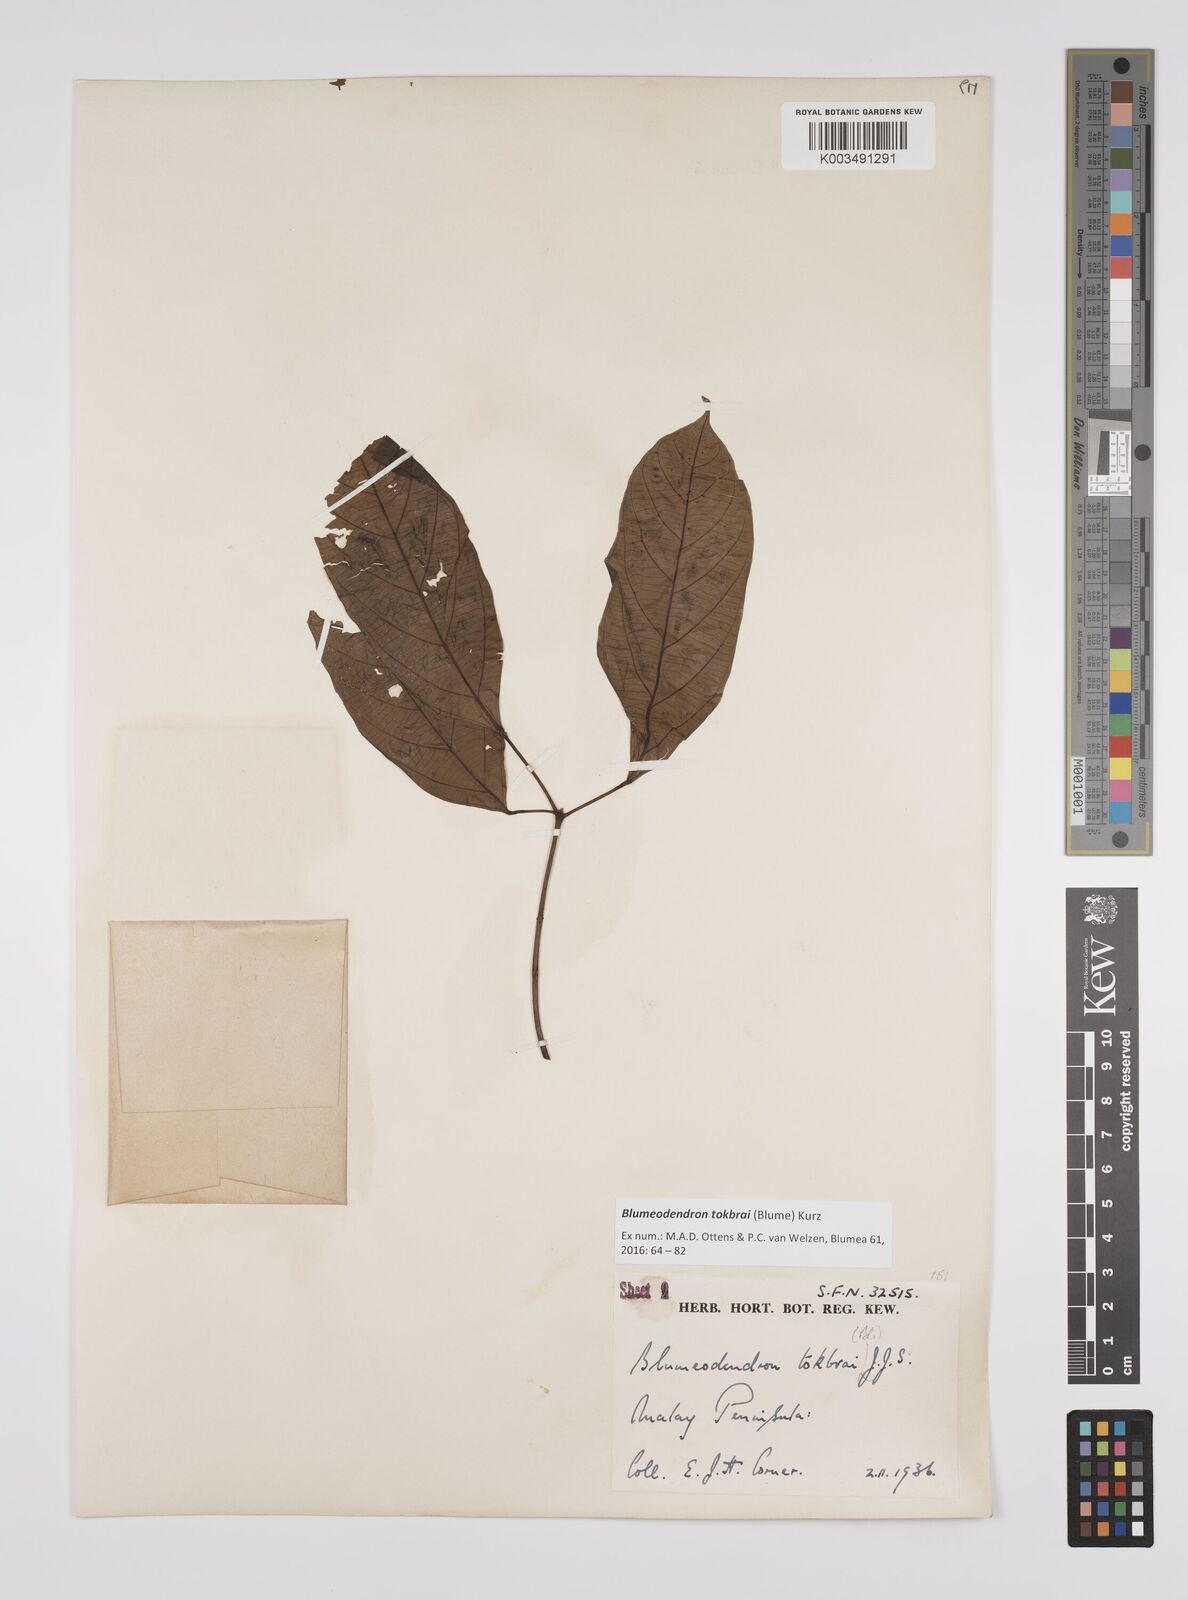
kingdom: Plantae
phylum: Tracheophyta
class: Magnoliopsida
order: Malpighiales
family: Euphorbiaceae
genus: Blumeodendron
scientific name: Blumeodendron tokbrai
